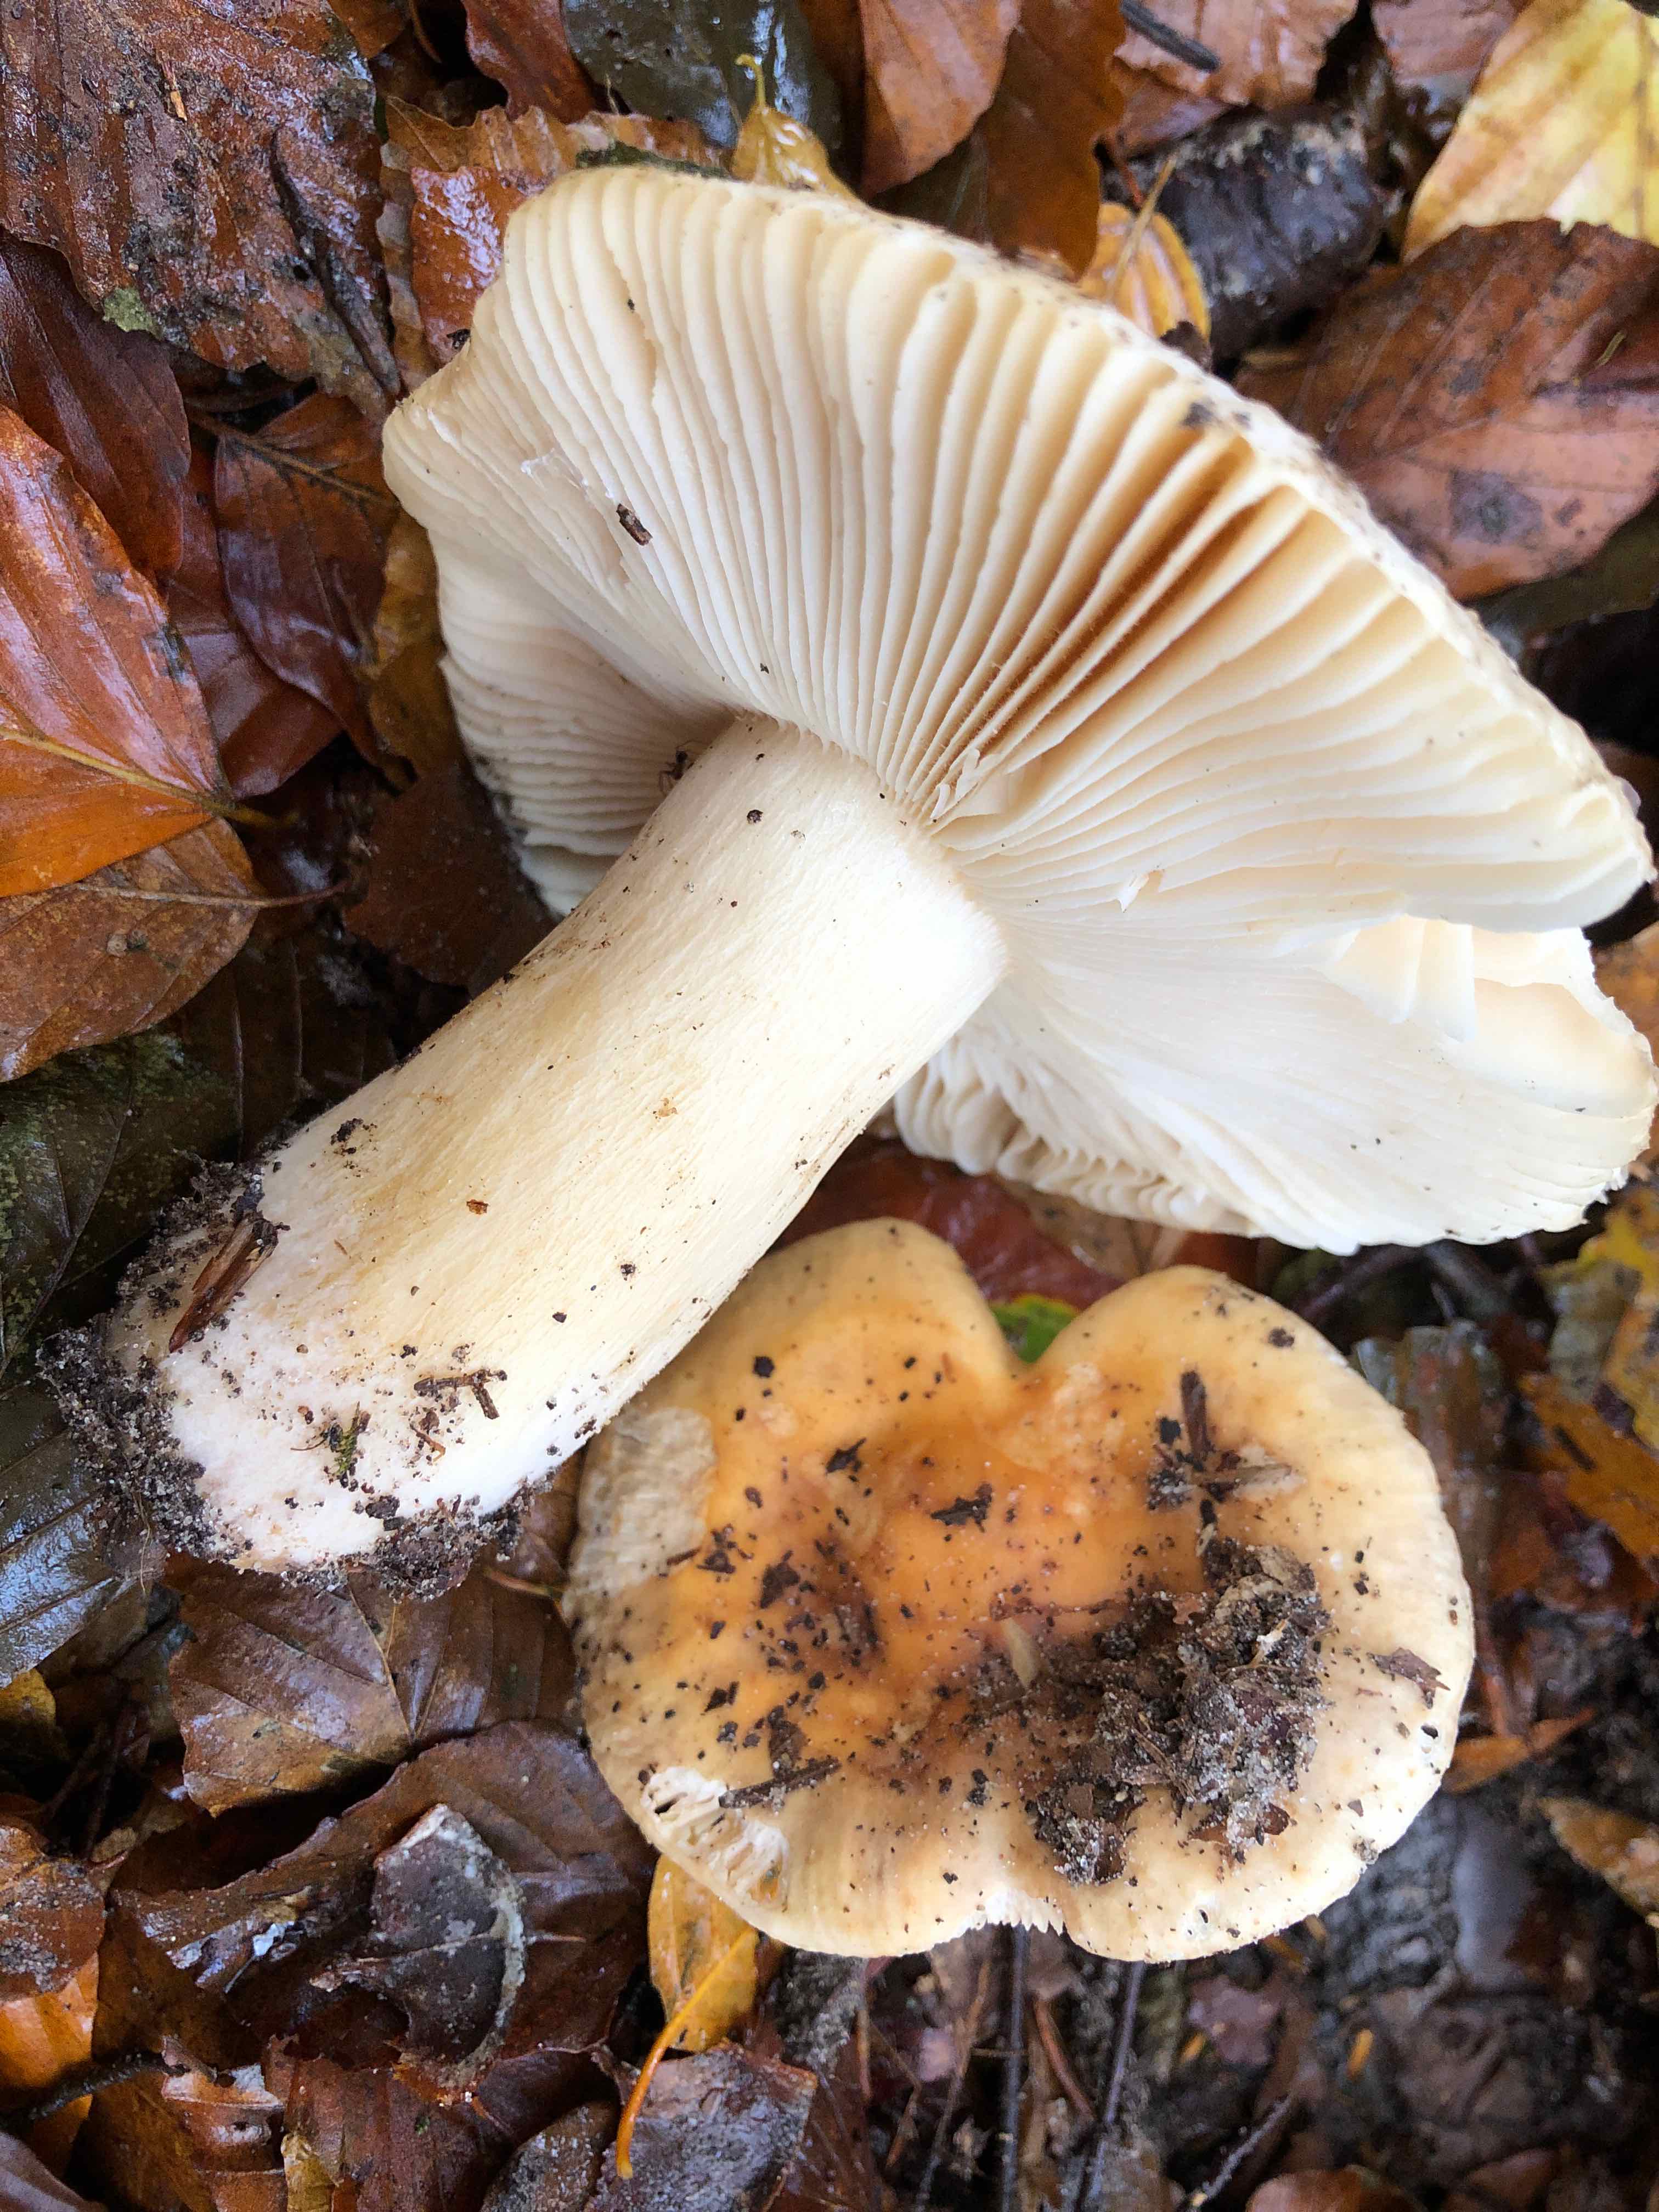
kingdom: Fungi
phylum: Basidiomycota
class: Agaricomycetes
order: Russulales
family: Russulaceae
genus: Russula
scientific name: Russula fellea
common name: galde-skørhat
